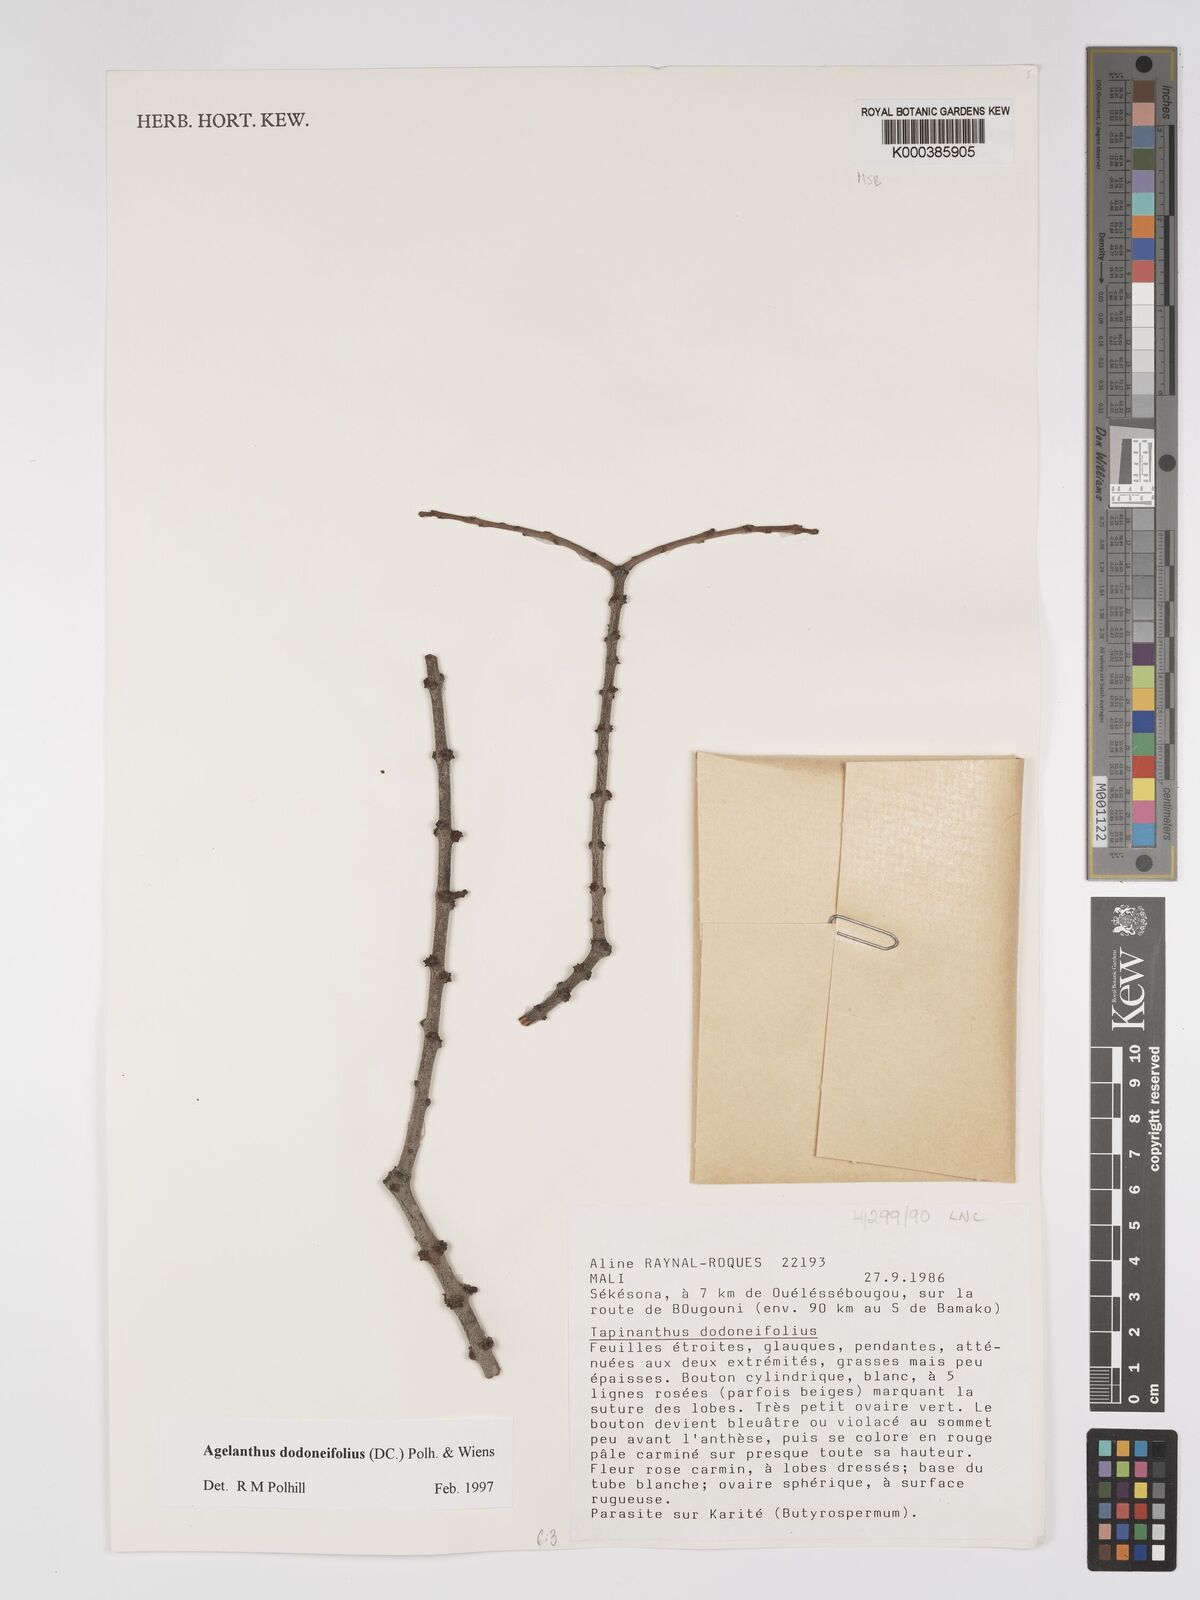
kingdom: Plantae
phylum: Tracheophyta
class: Magnoliopsida
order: Santalales
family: Loranthaceae
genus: Agelanthus
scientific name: Agelanthus dodoneifolius
